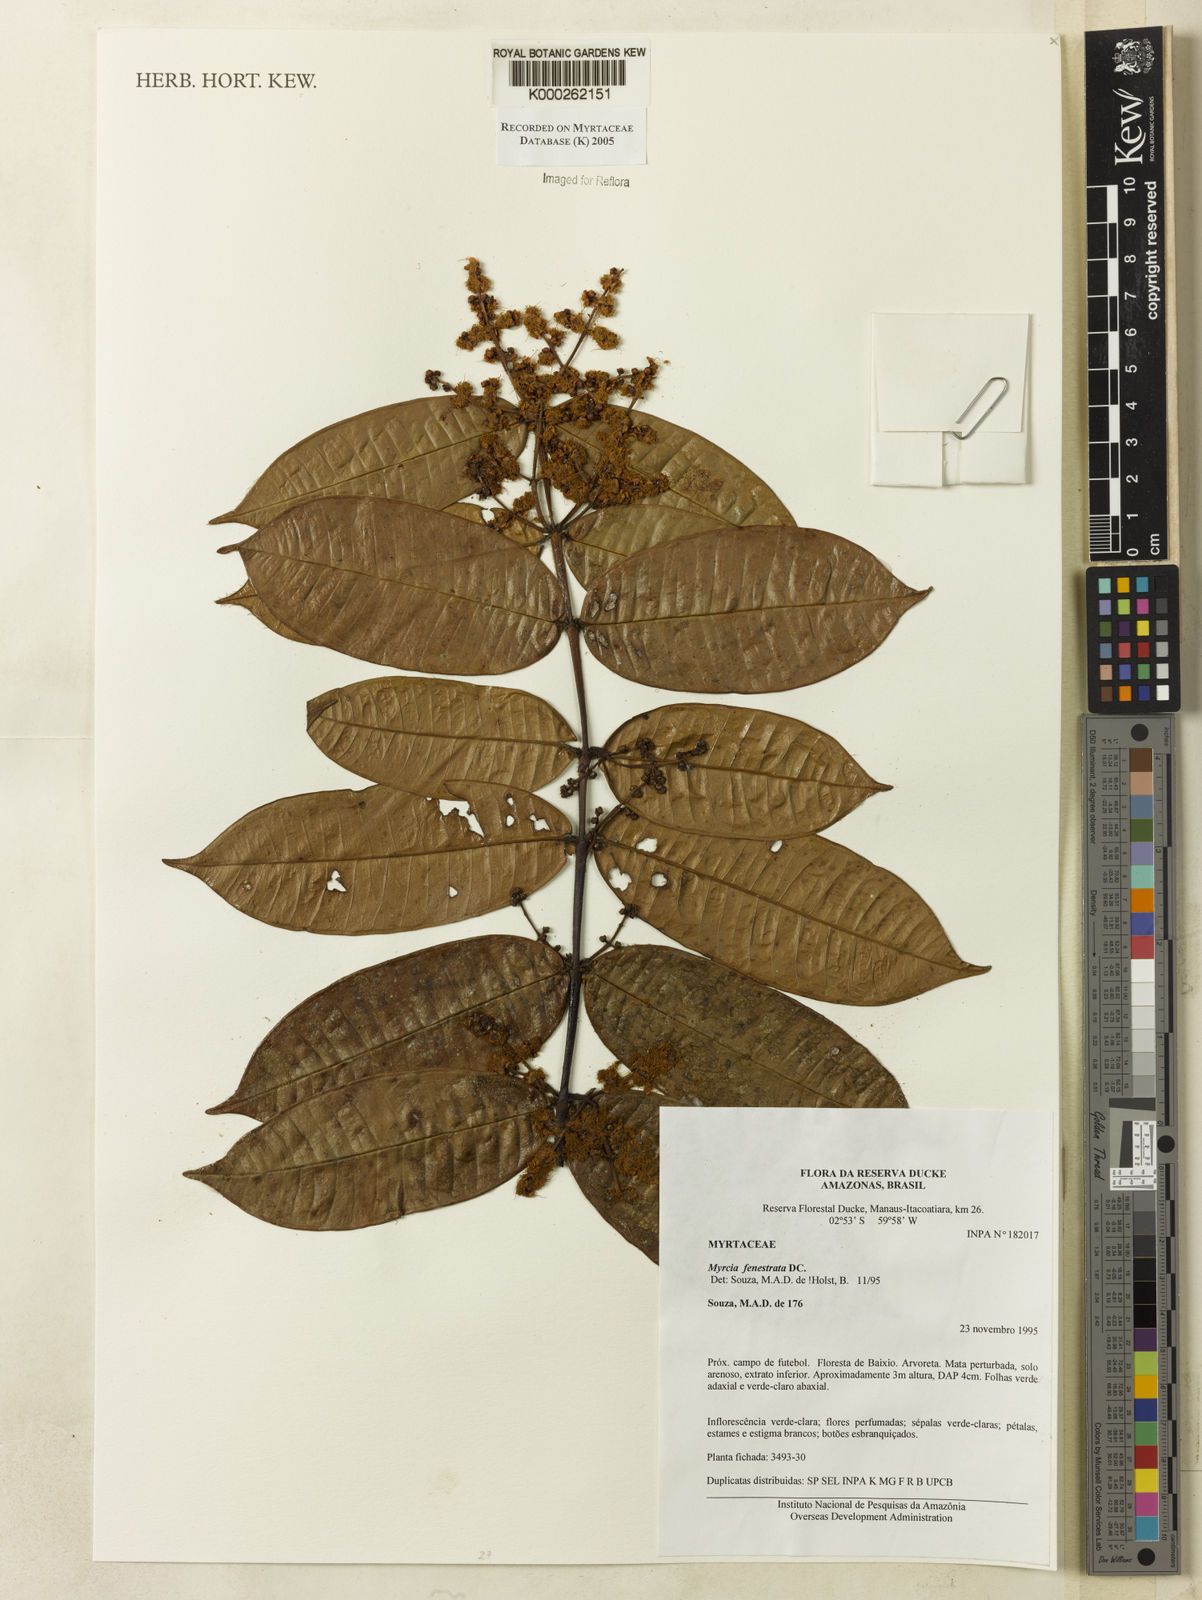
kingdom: Plantae
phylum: Tracheophyta
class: Magnoliopsida
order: Myrtales
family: Myrtaceae
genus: Myrcia
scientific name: Myrcia fenestrata
